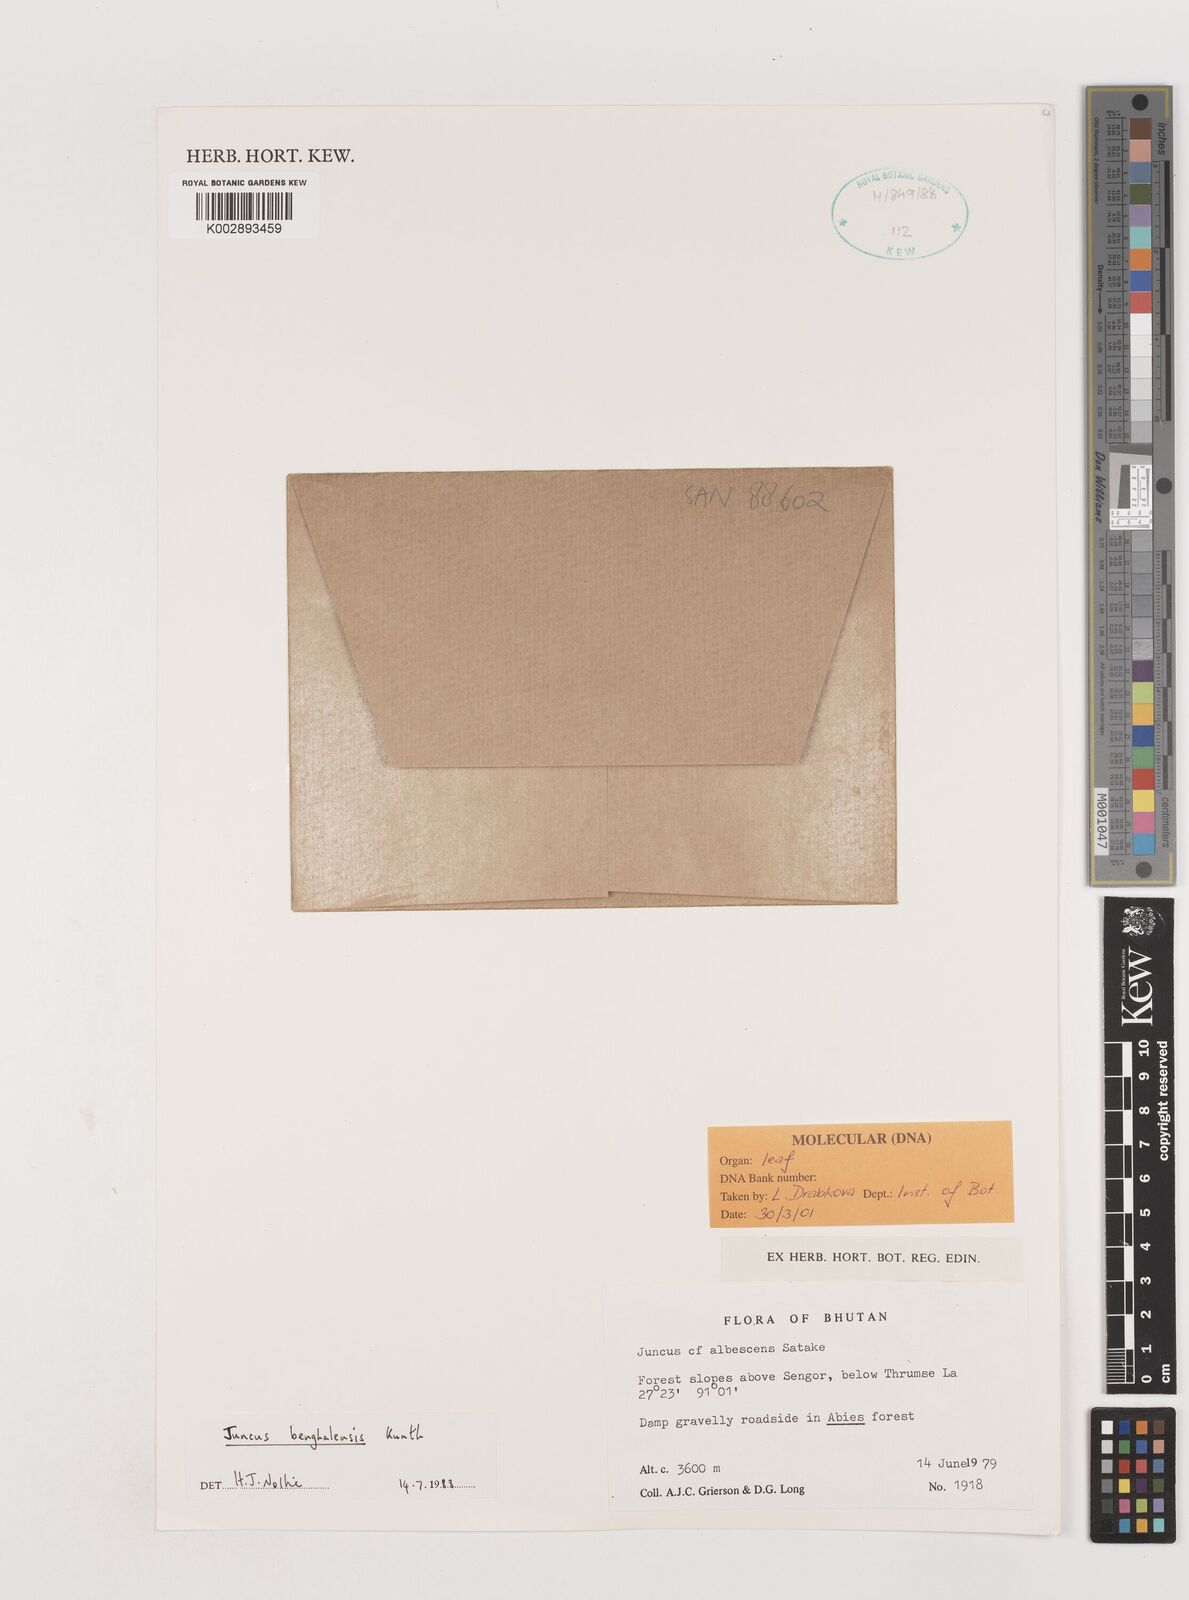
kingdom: Plantae
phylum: Tracheophyta
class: Liliopsida
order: Poales
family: Juncaceae
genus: Juncus
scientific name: Juncus membranaceus
